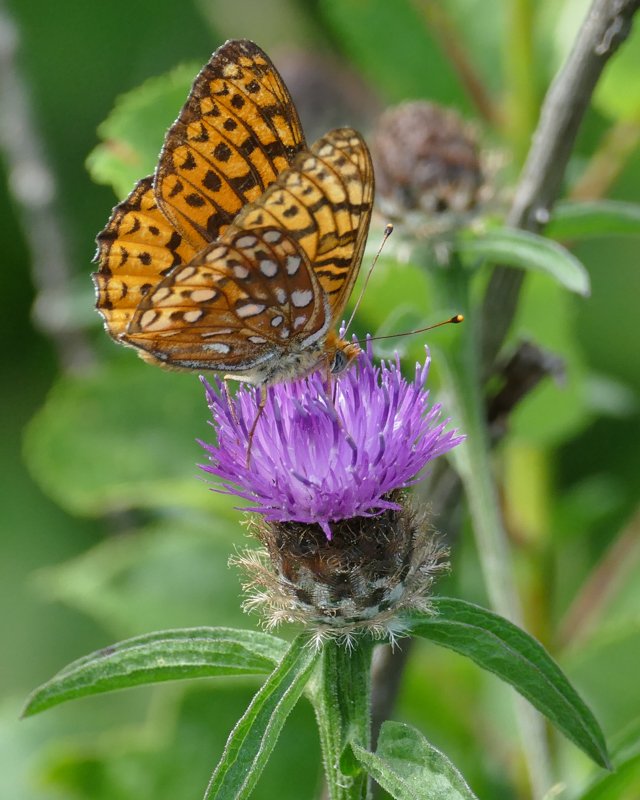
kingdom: Animalia
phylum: Arthropoda
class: Insecta
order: Lepidoptera
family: Nymphalidae
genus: Speyeria
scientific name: Speyeria atlantis
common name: Atlantis Fritillary
